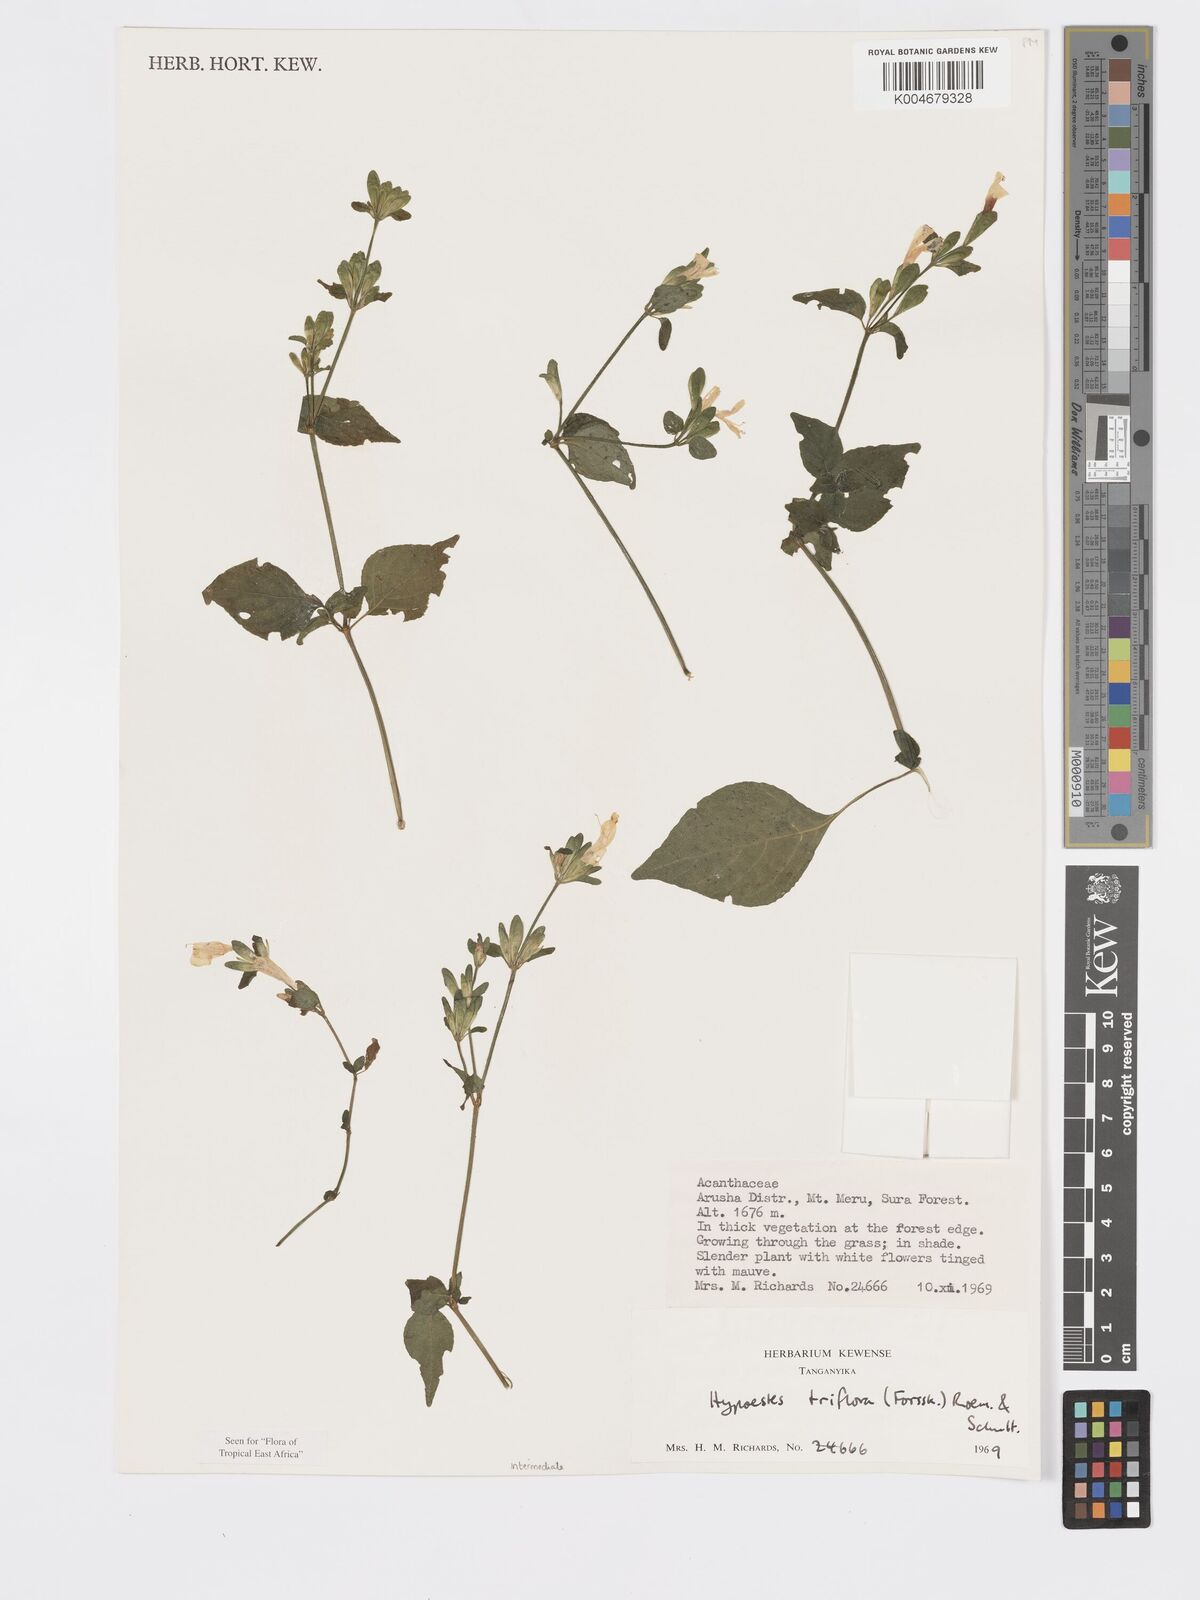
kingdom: Plantae
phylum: Tracheophyta
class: Magnoliopsida
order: Lamiales
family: Acanthaceae
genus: Hypoestes
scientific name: Hypoestes triflora
